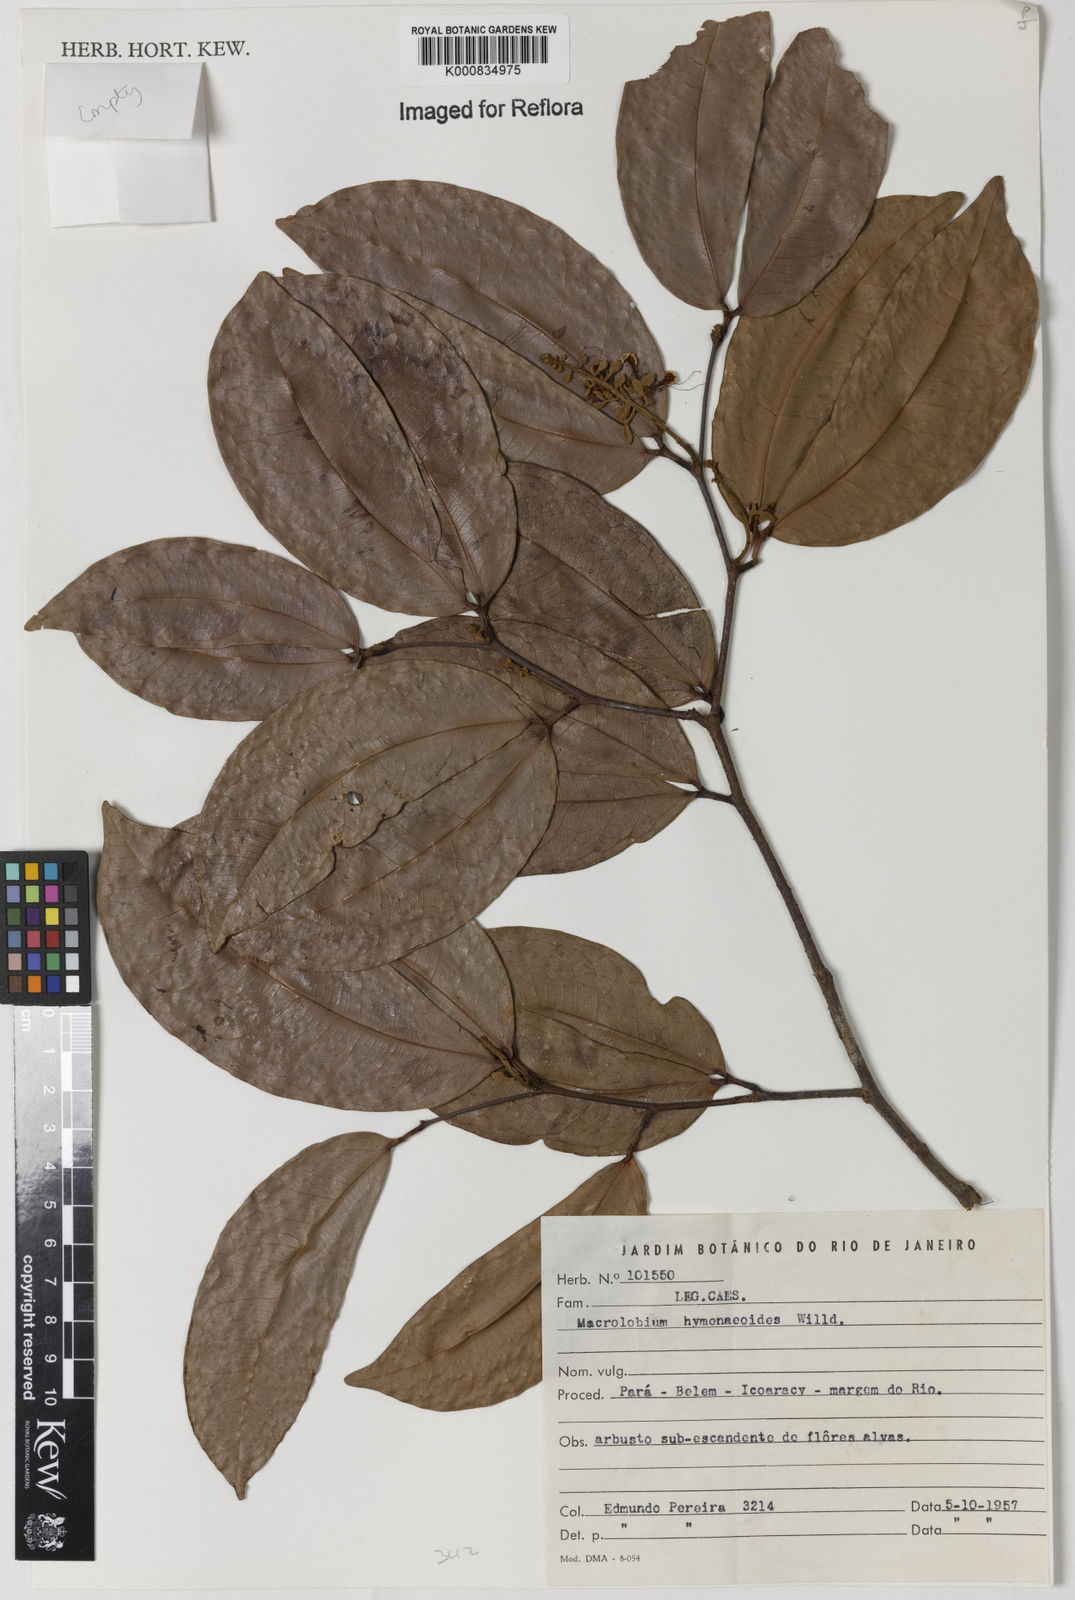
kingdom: Plantae
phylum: Tracheophyta
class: Magnoliopsida
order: Fabales
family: Fabaceae
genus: Macrolobium
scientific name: Macrolobium bifolium
